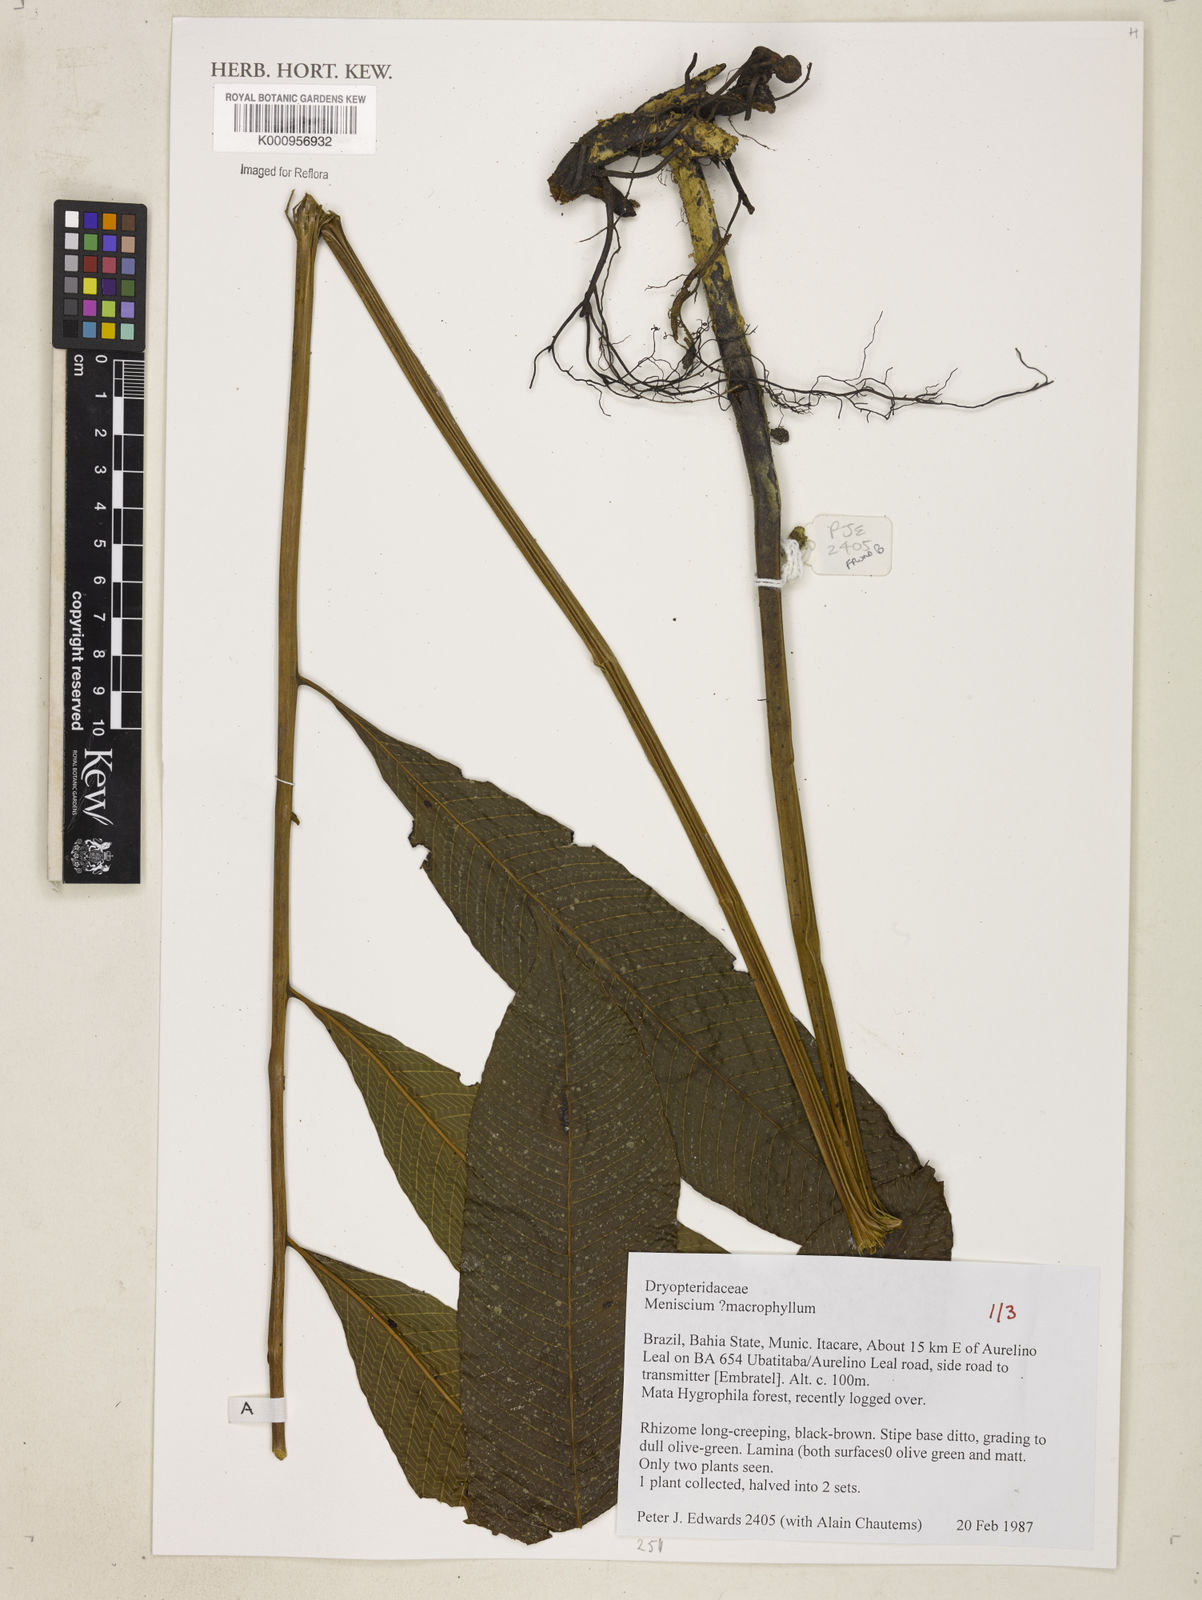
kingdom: Plantae
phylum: Tracheophyta
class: Polypodiopsida
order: Polypodiales
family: Thelypteridaceae
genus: Meniscium
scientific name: Meniscium macrophyllum
